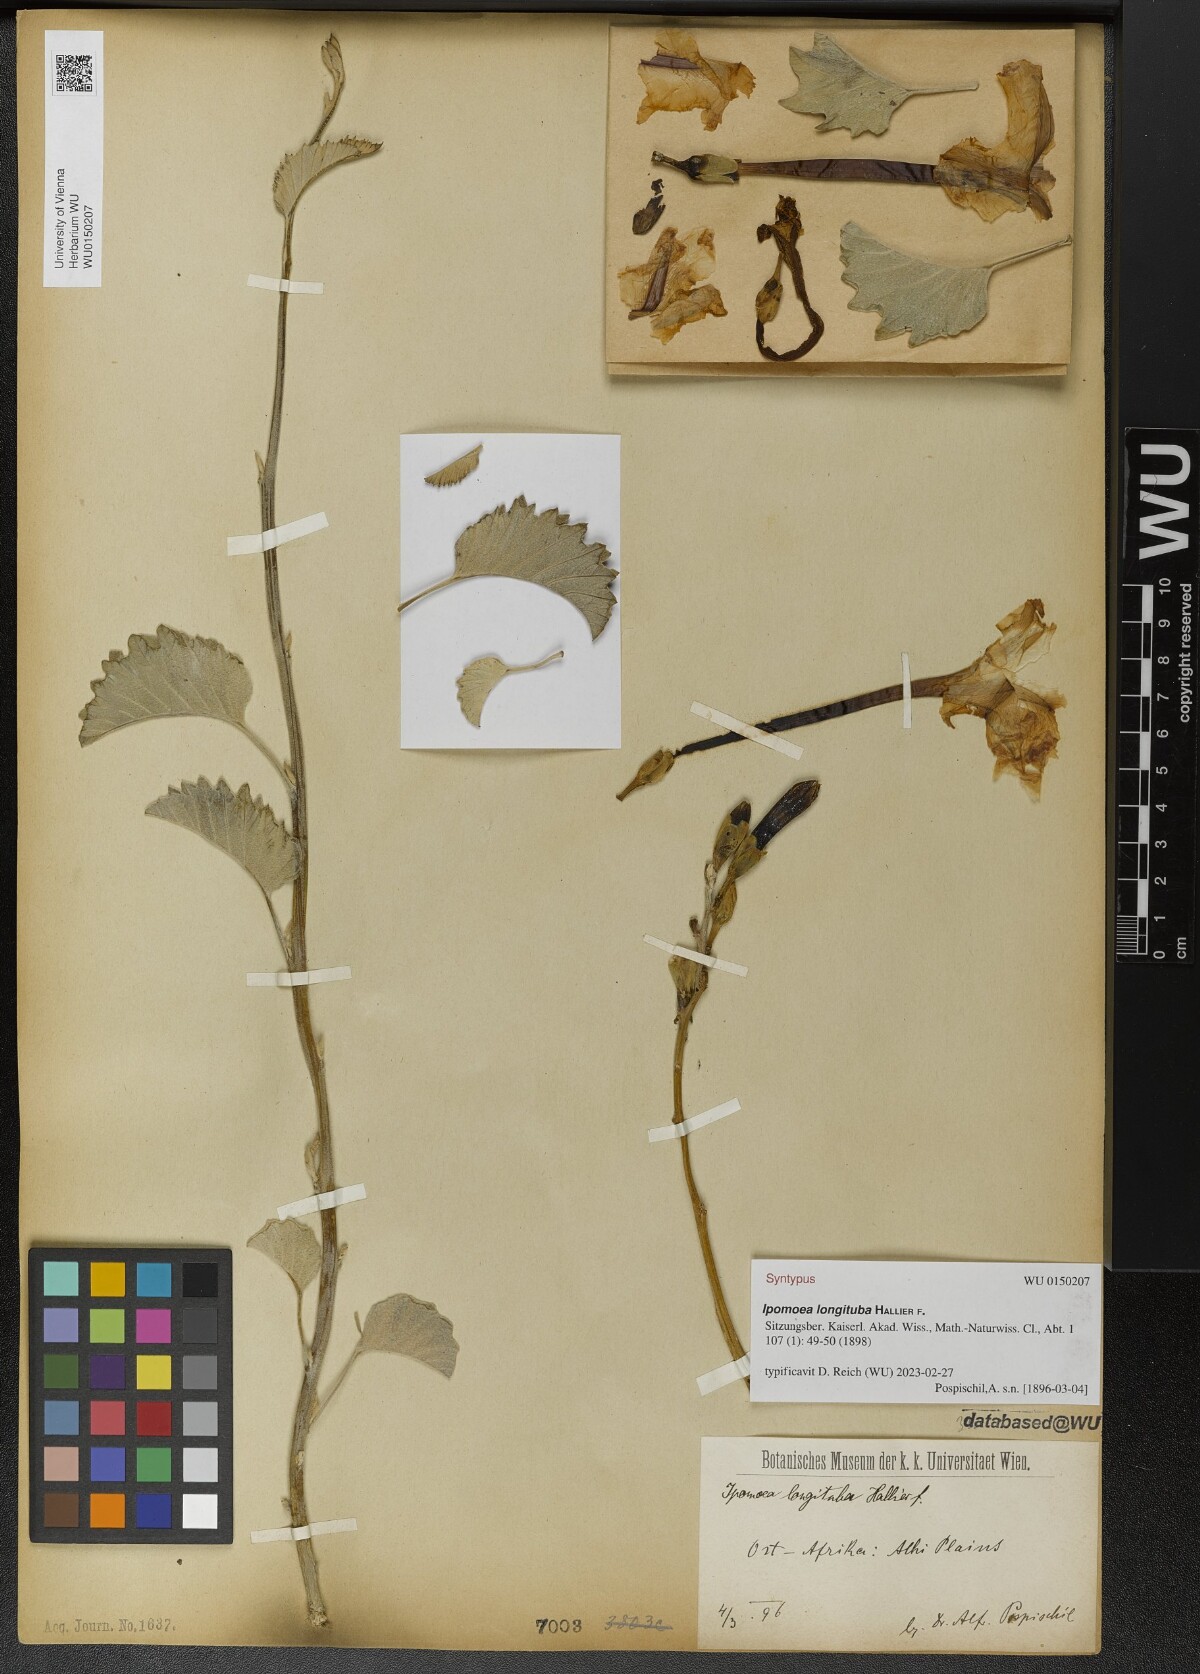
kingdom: Plantae
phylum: Tracheophyta
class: Magnoliopsida
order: Solanales
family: Convolvulaceae
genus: Ipomoea
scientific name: Ipomoea longituba
